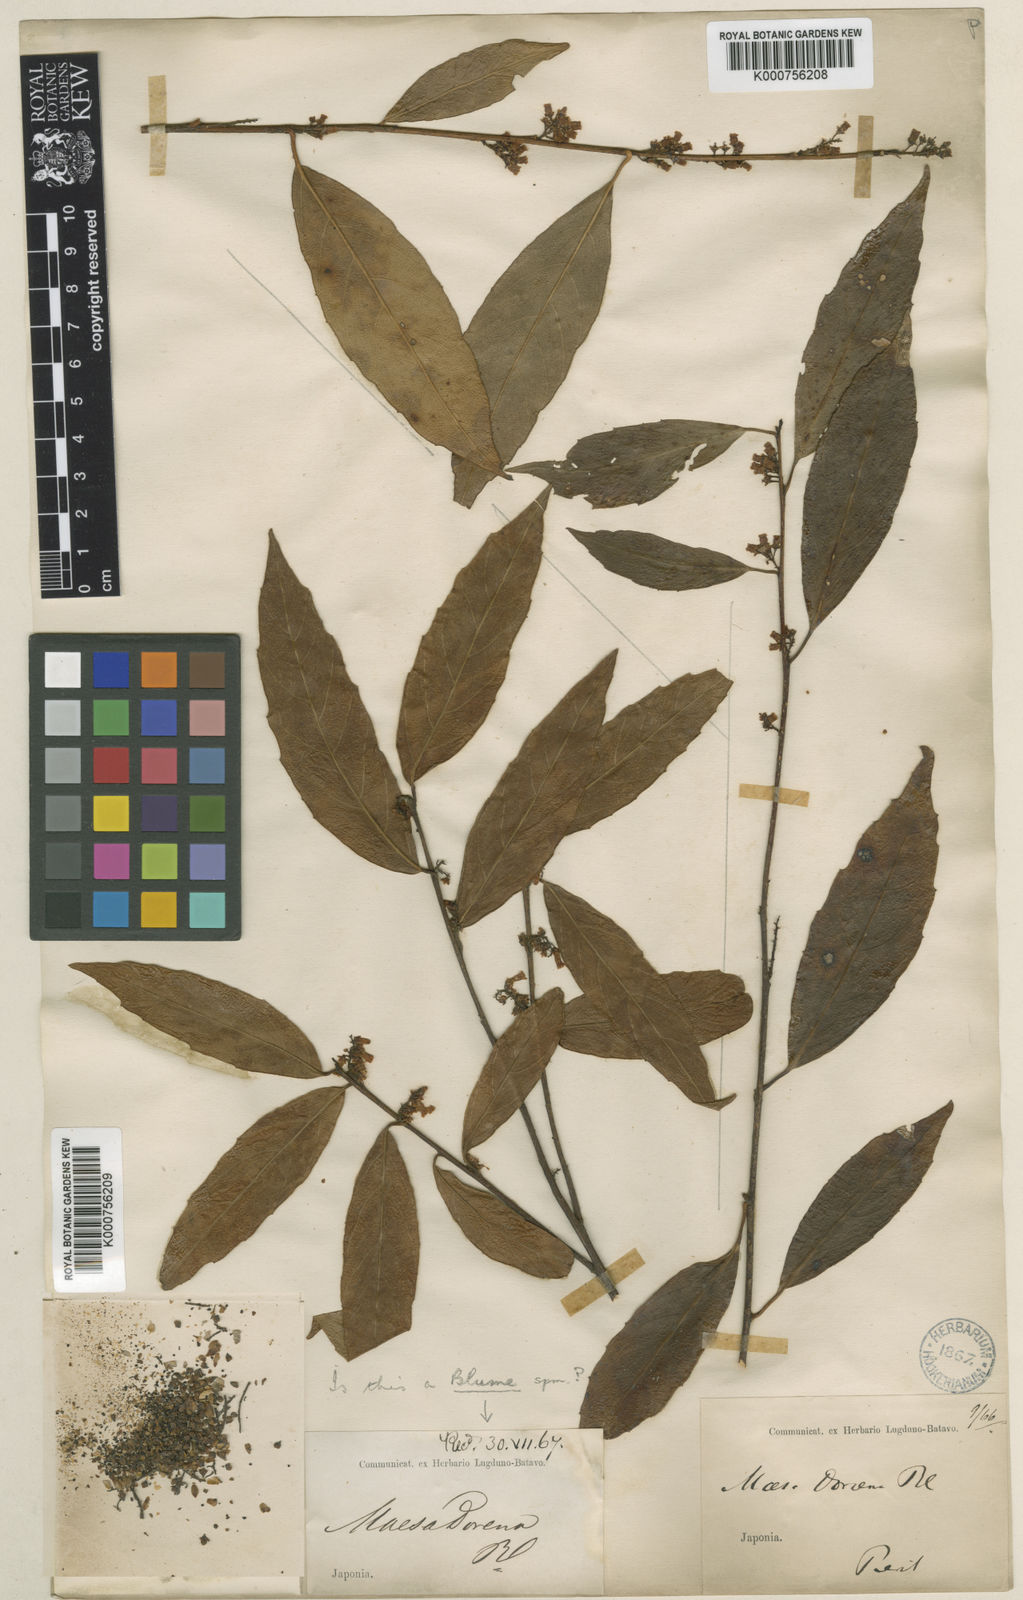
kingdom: Plantae
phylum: Tracheophyta
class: Magnoliopsida
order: Ericales
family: Primulaceae
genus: Maesa
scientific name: Maesa
